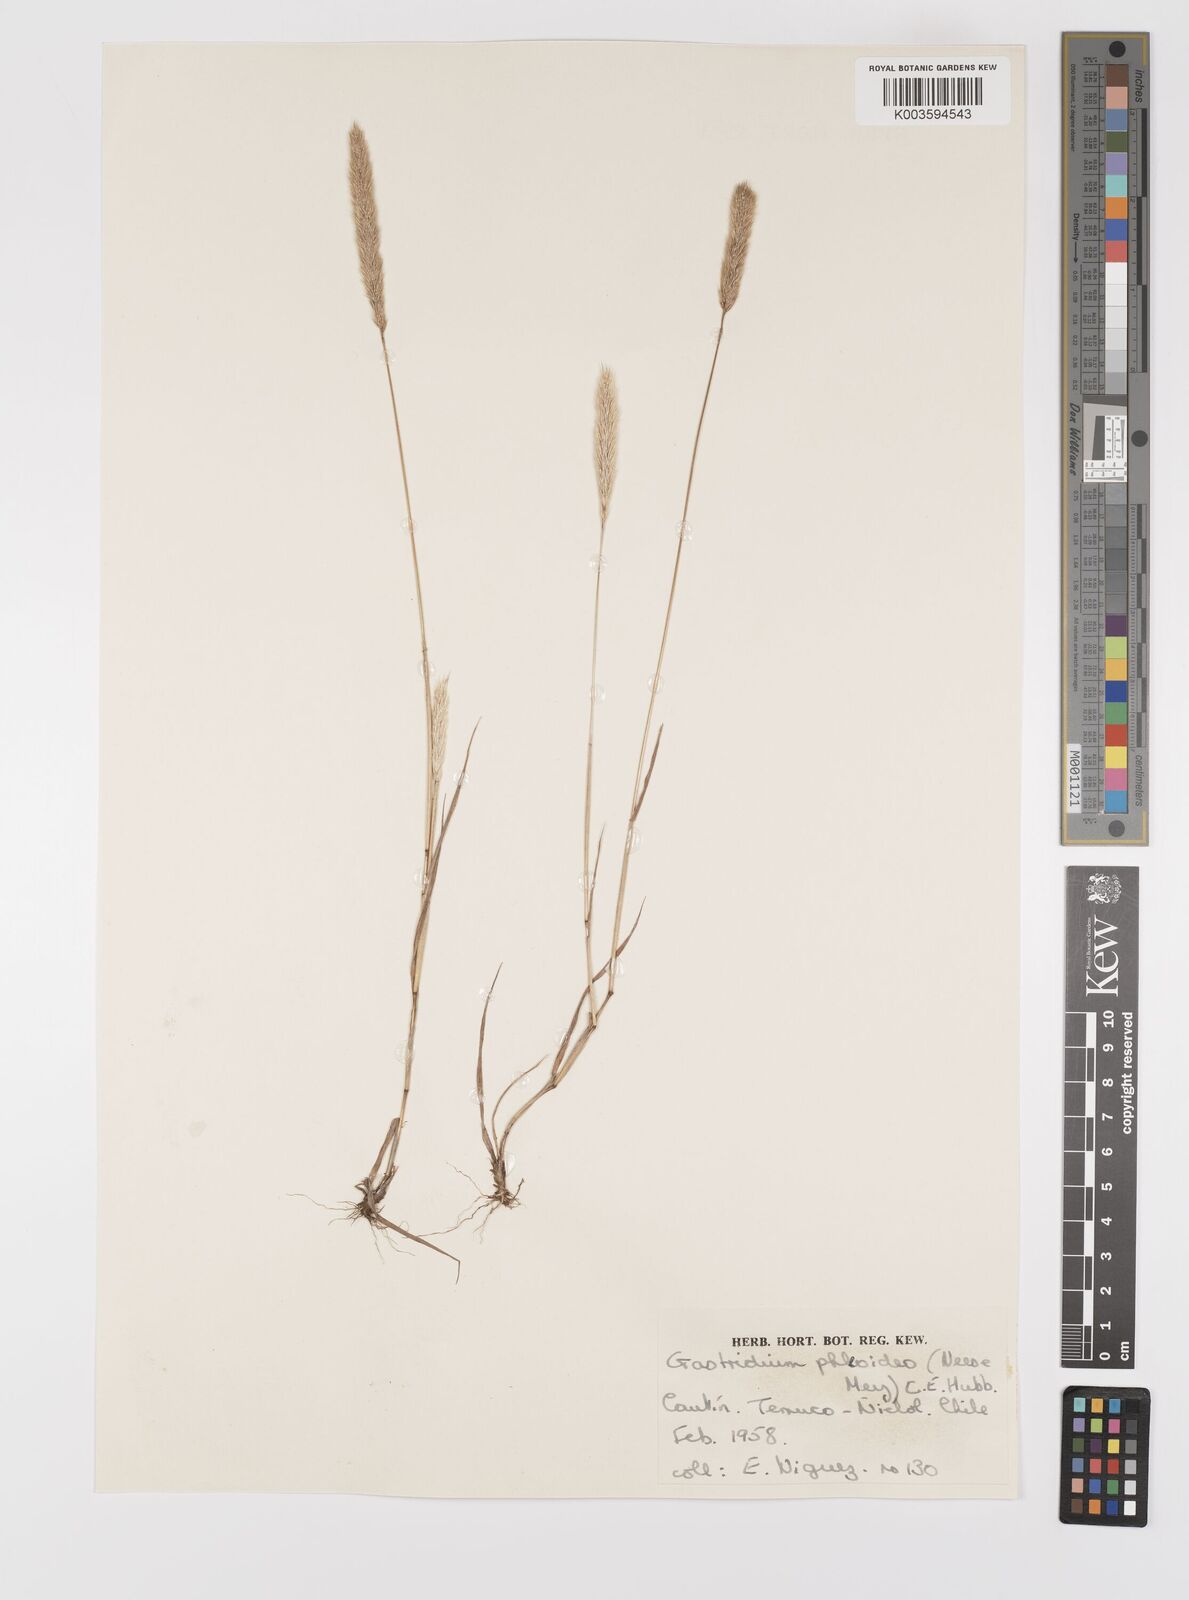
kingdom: Plantae
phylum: Tracheophyta
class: Liliopsida
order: Poales
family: Poaceae
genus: Gastridium
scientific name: Gastridium phleoides
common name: Nit grass
